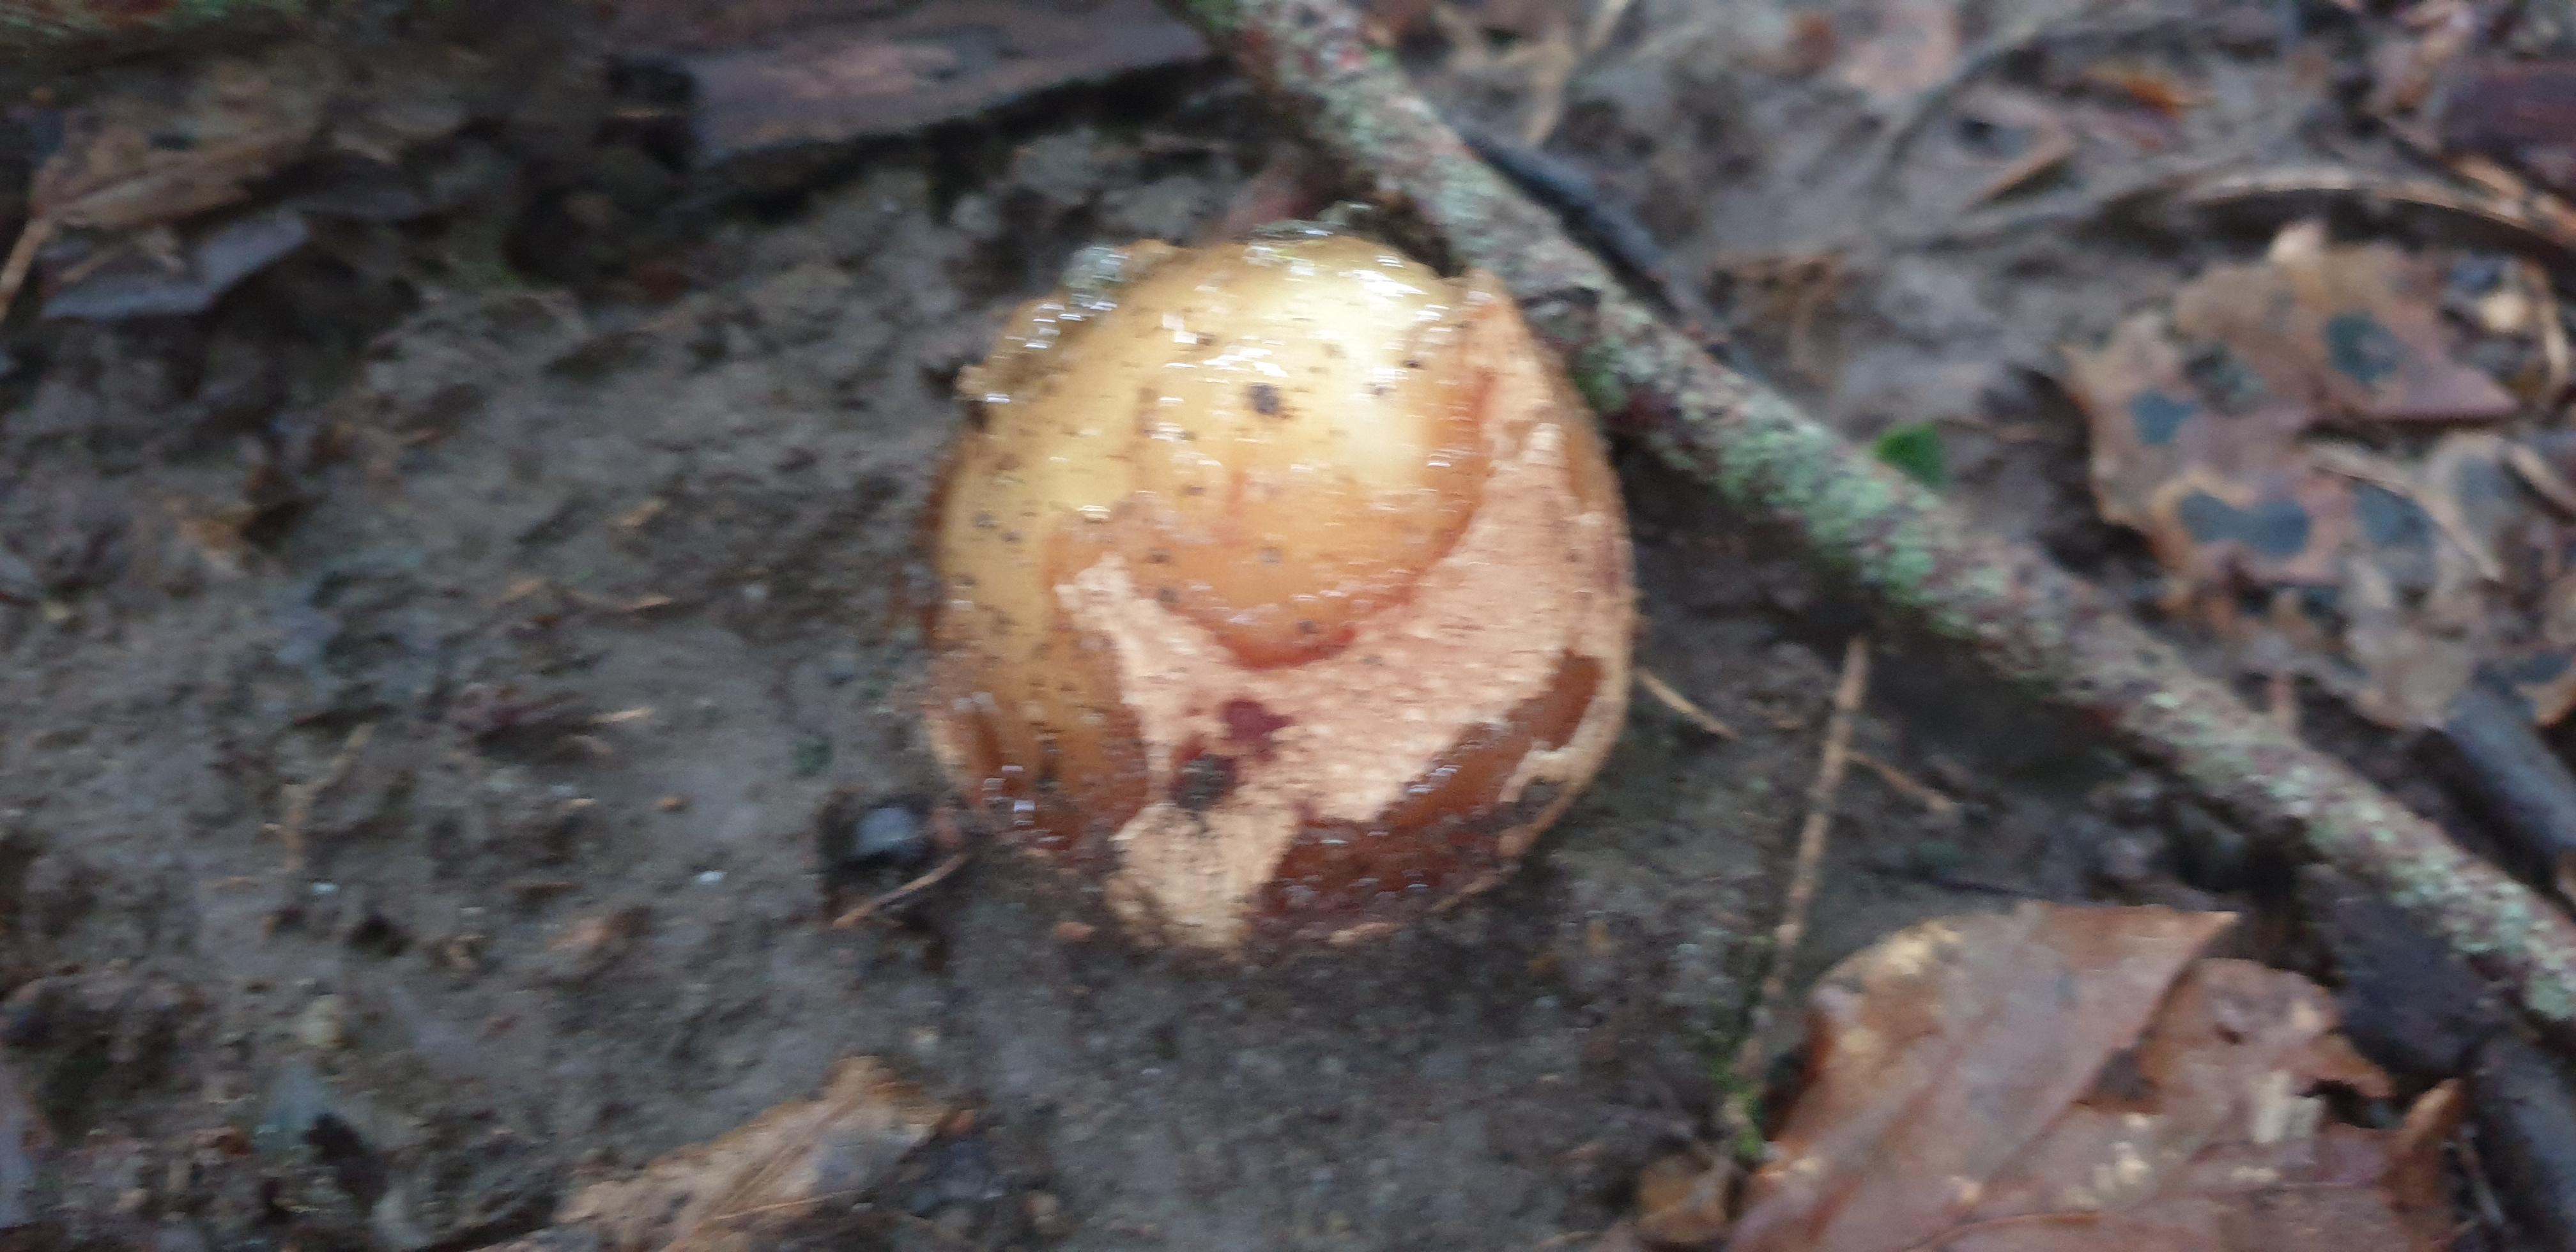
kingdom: Fungi
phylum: Basidiomycota
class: Agaricomycetes
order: Phallales
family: Phallaceae
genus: Phallus
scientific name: Phallus impudicus
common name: almindelig stinksvamp
